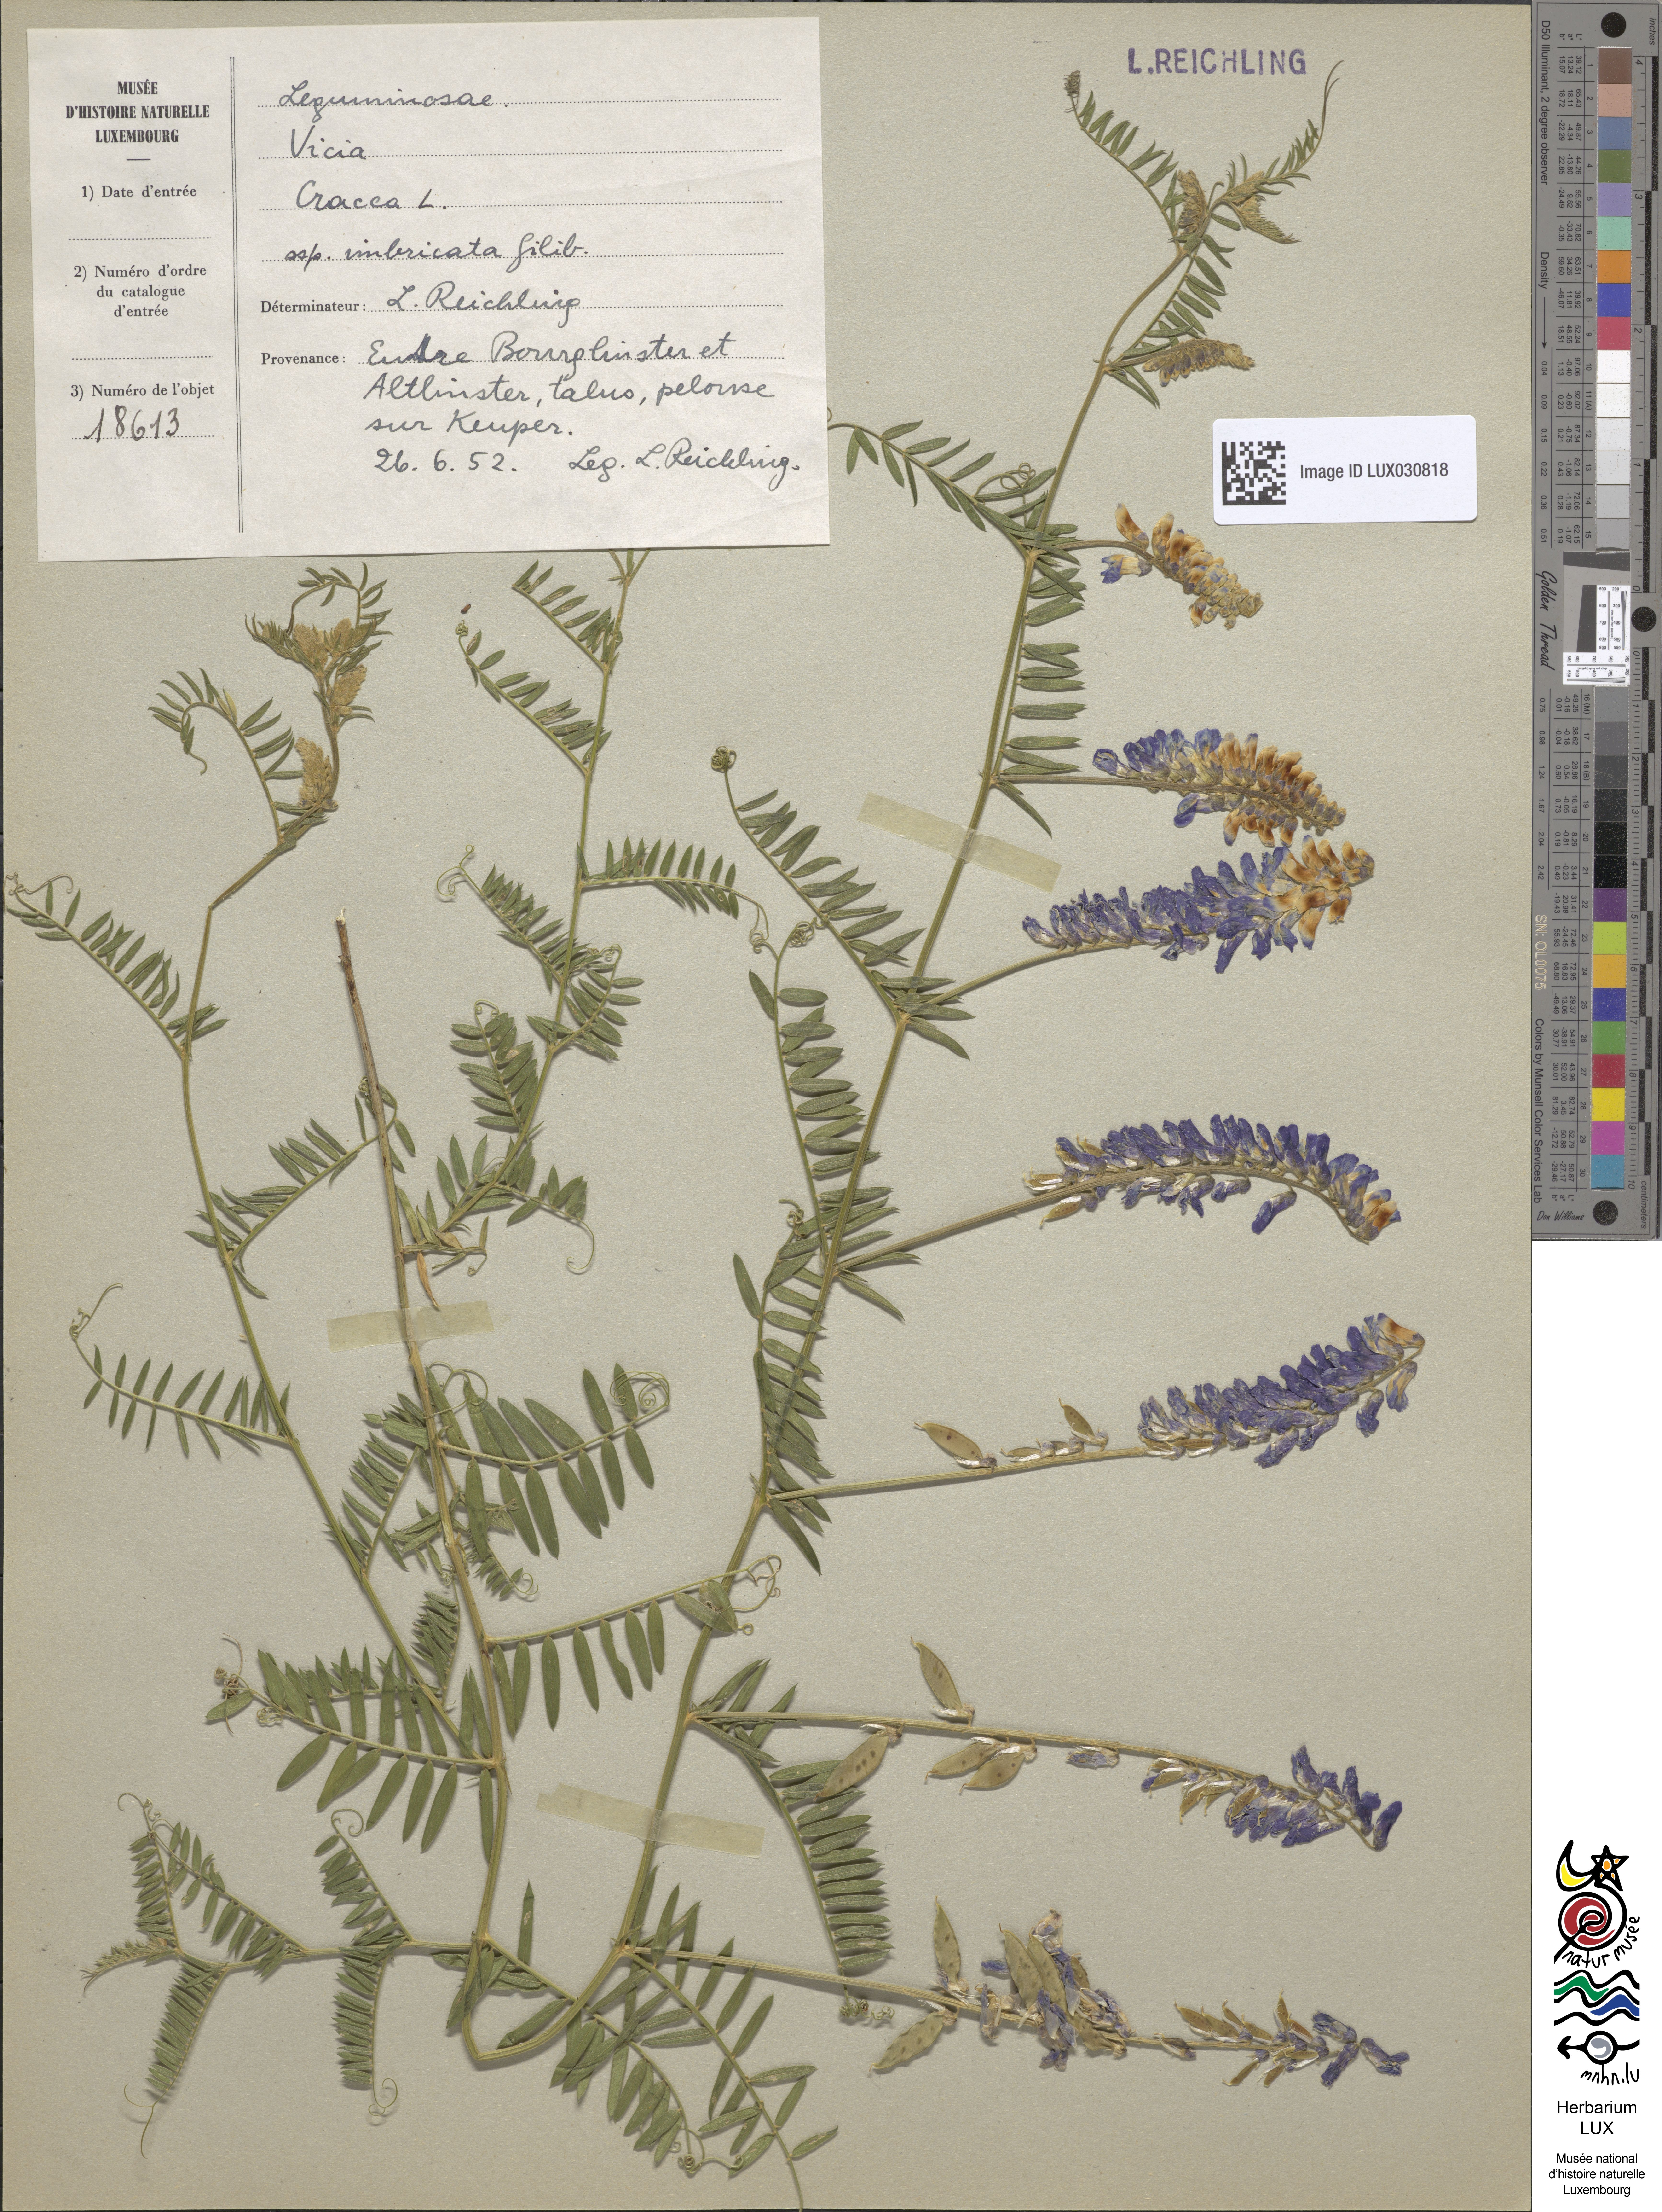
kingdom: Plantae
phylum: Tracheophyta
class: Magnoliopsida
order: Fabales
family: Fabaceae
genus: Vicia
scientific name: Vicia cracca
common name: Bird vetch
